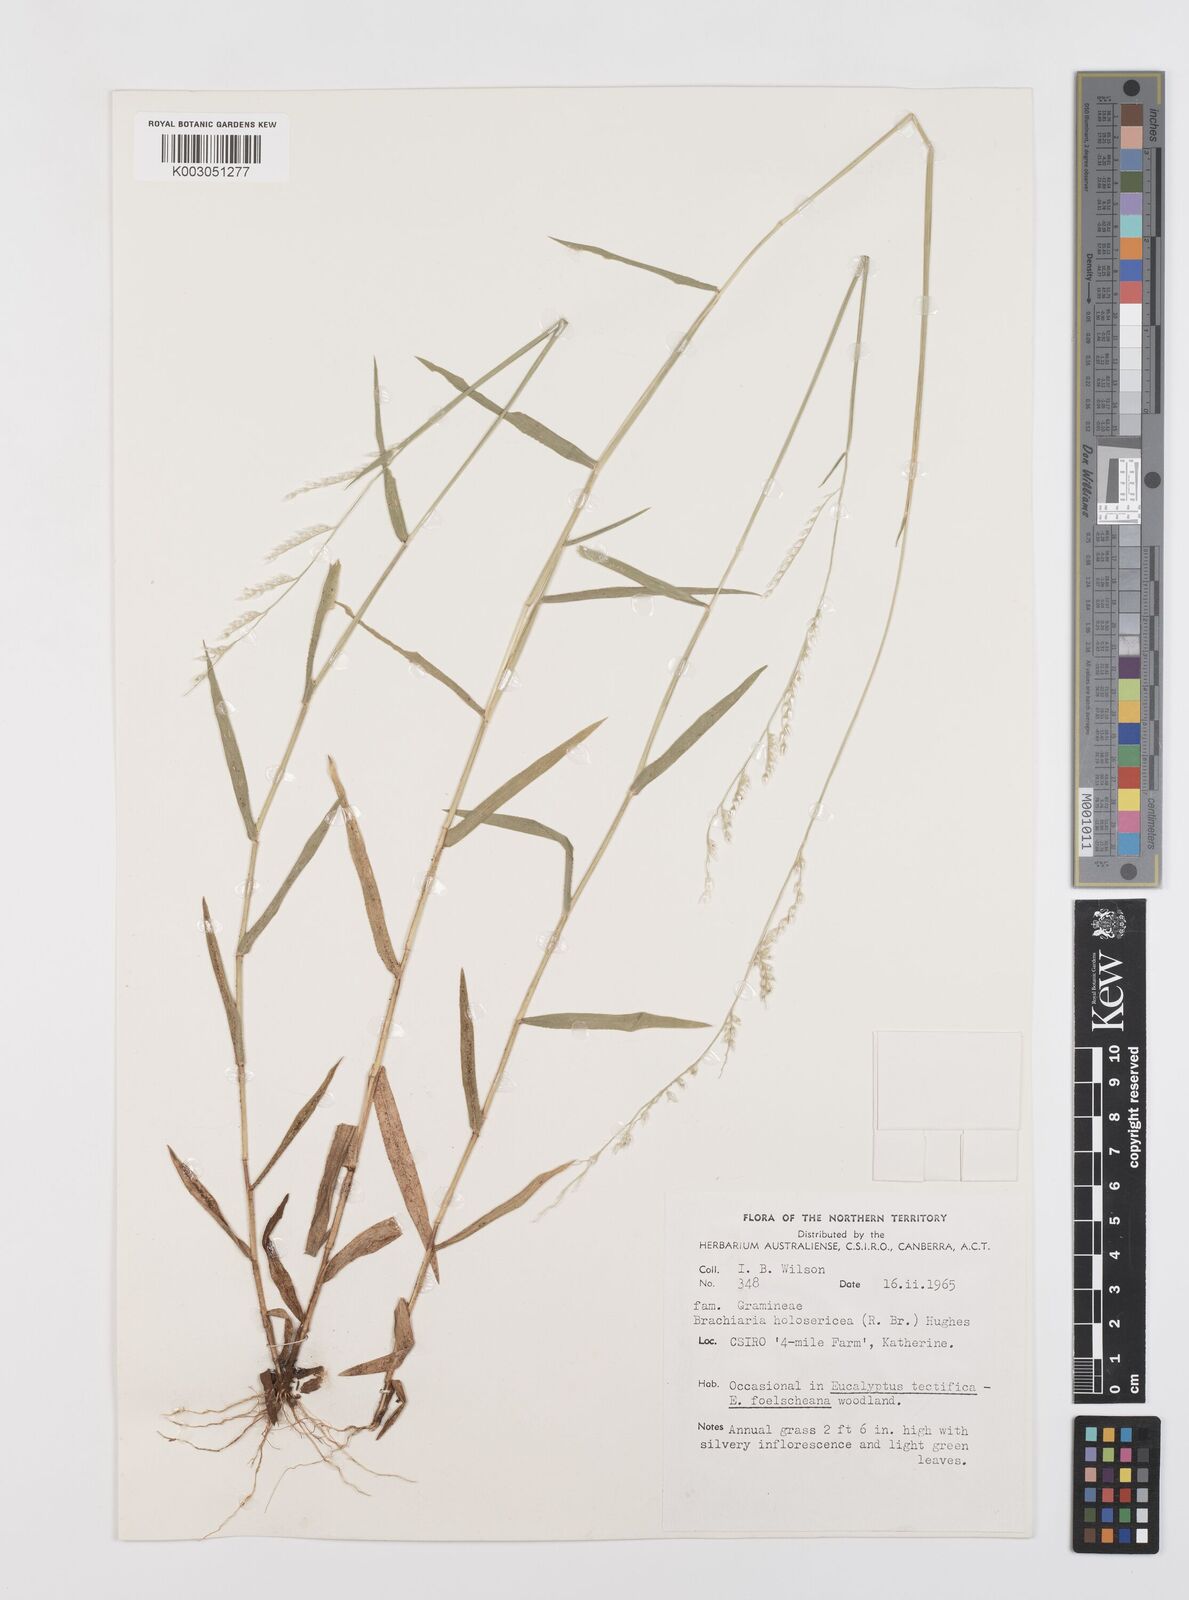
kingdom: Plantae
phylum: Tracheophyta
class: Liliopsida
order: Poales
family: Poaceae
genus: Urochloa
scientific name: Urochloa holosericea
